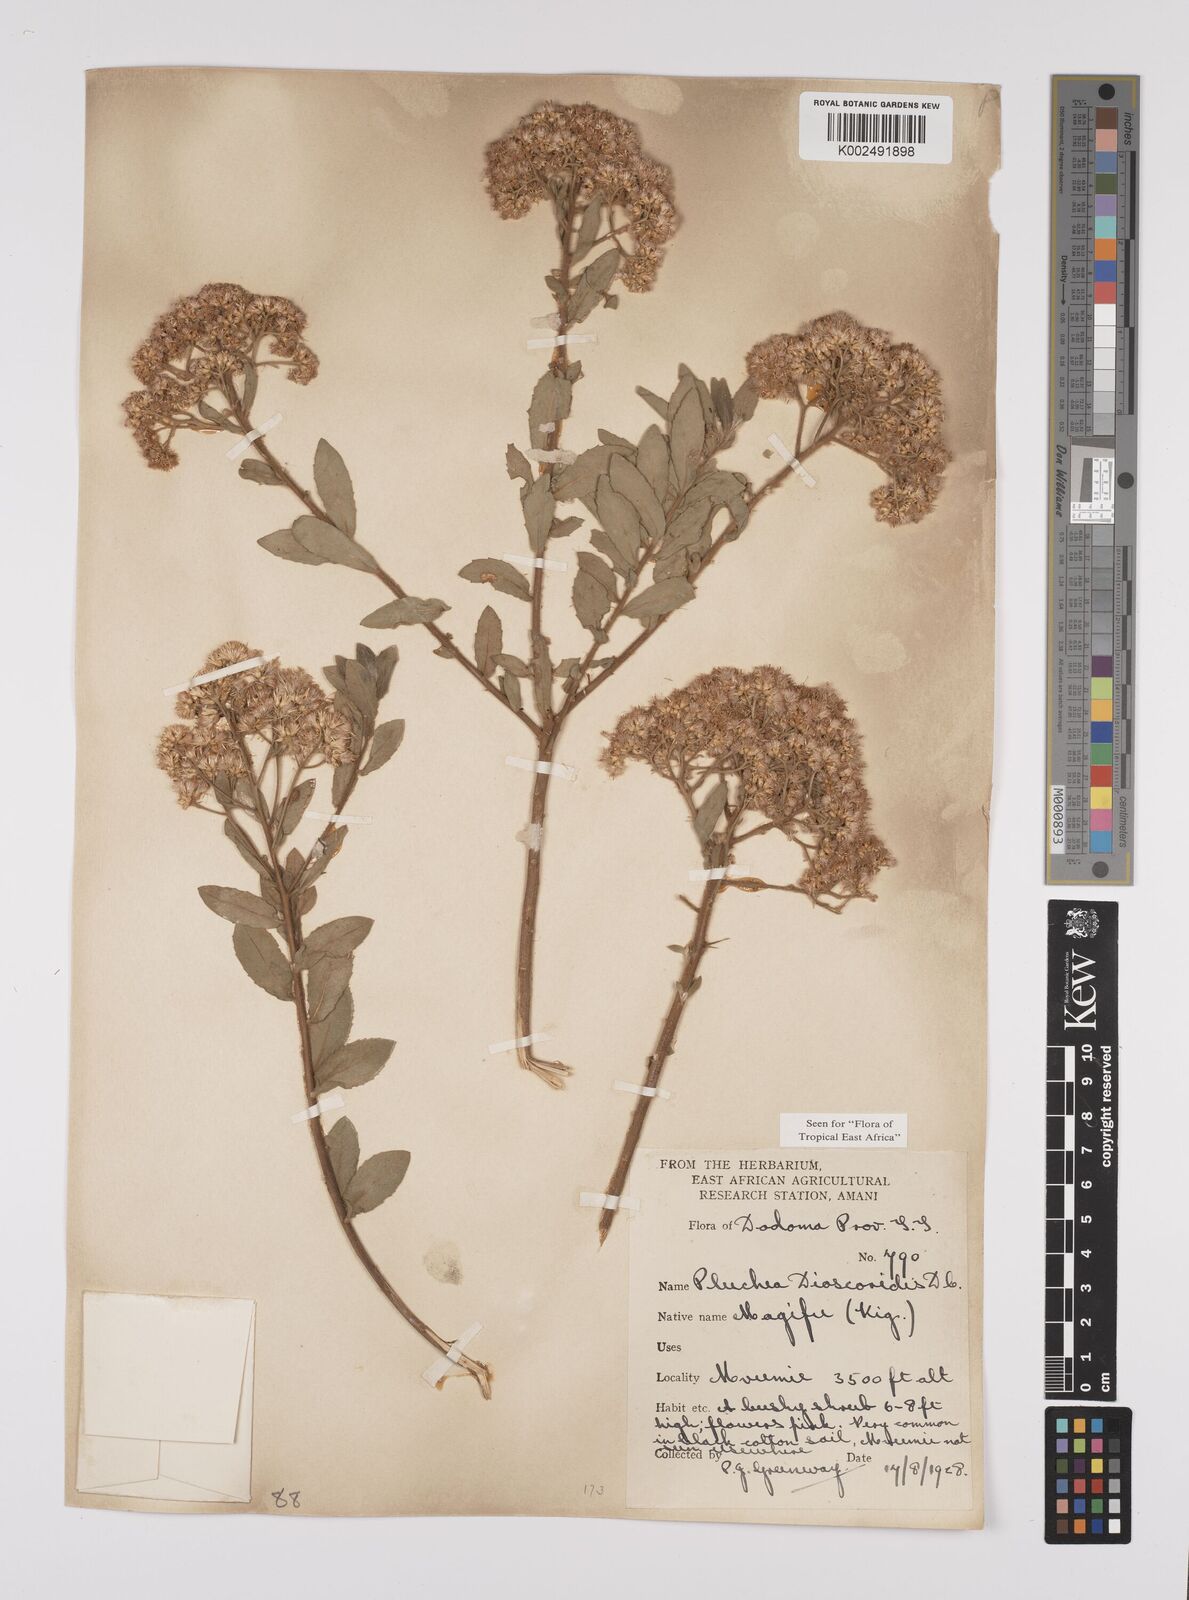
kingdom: Plantae
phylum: Tracheophyta
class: Magnoliopsida
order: Asterales
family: Asteraceae
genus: Pluchea
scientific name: Pluchea dioscoridis
